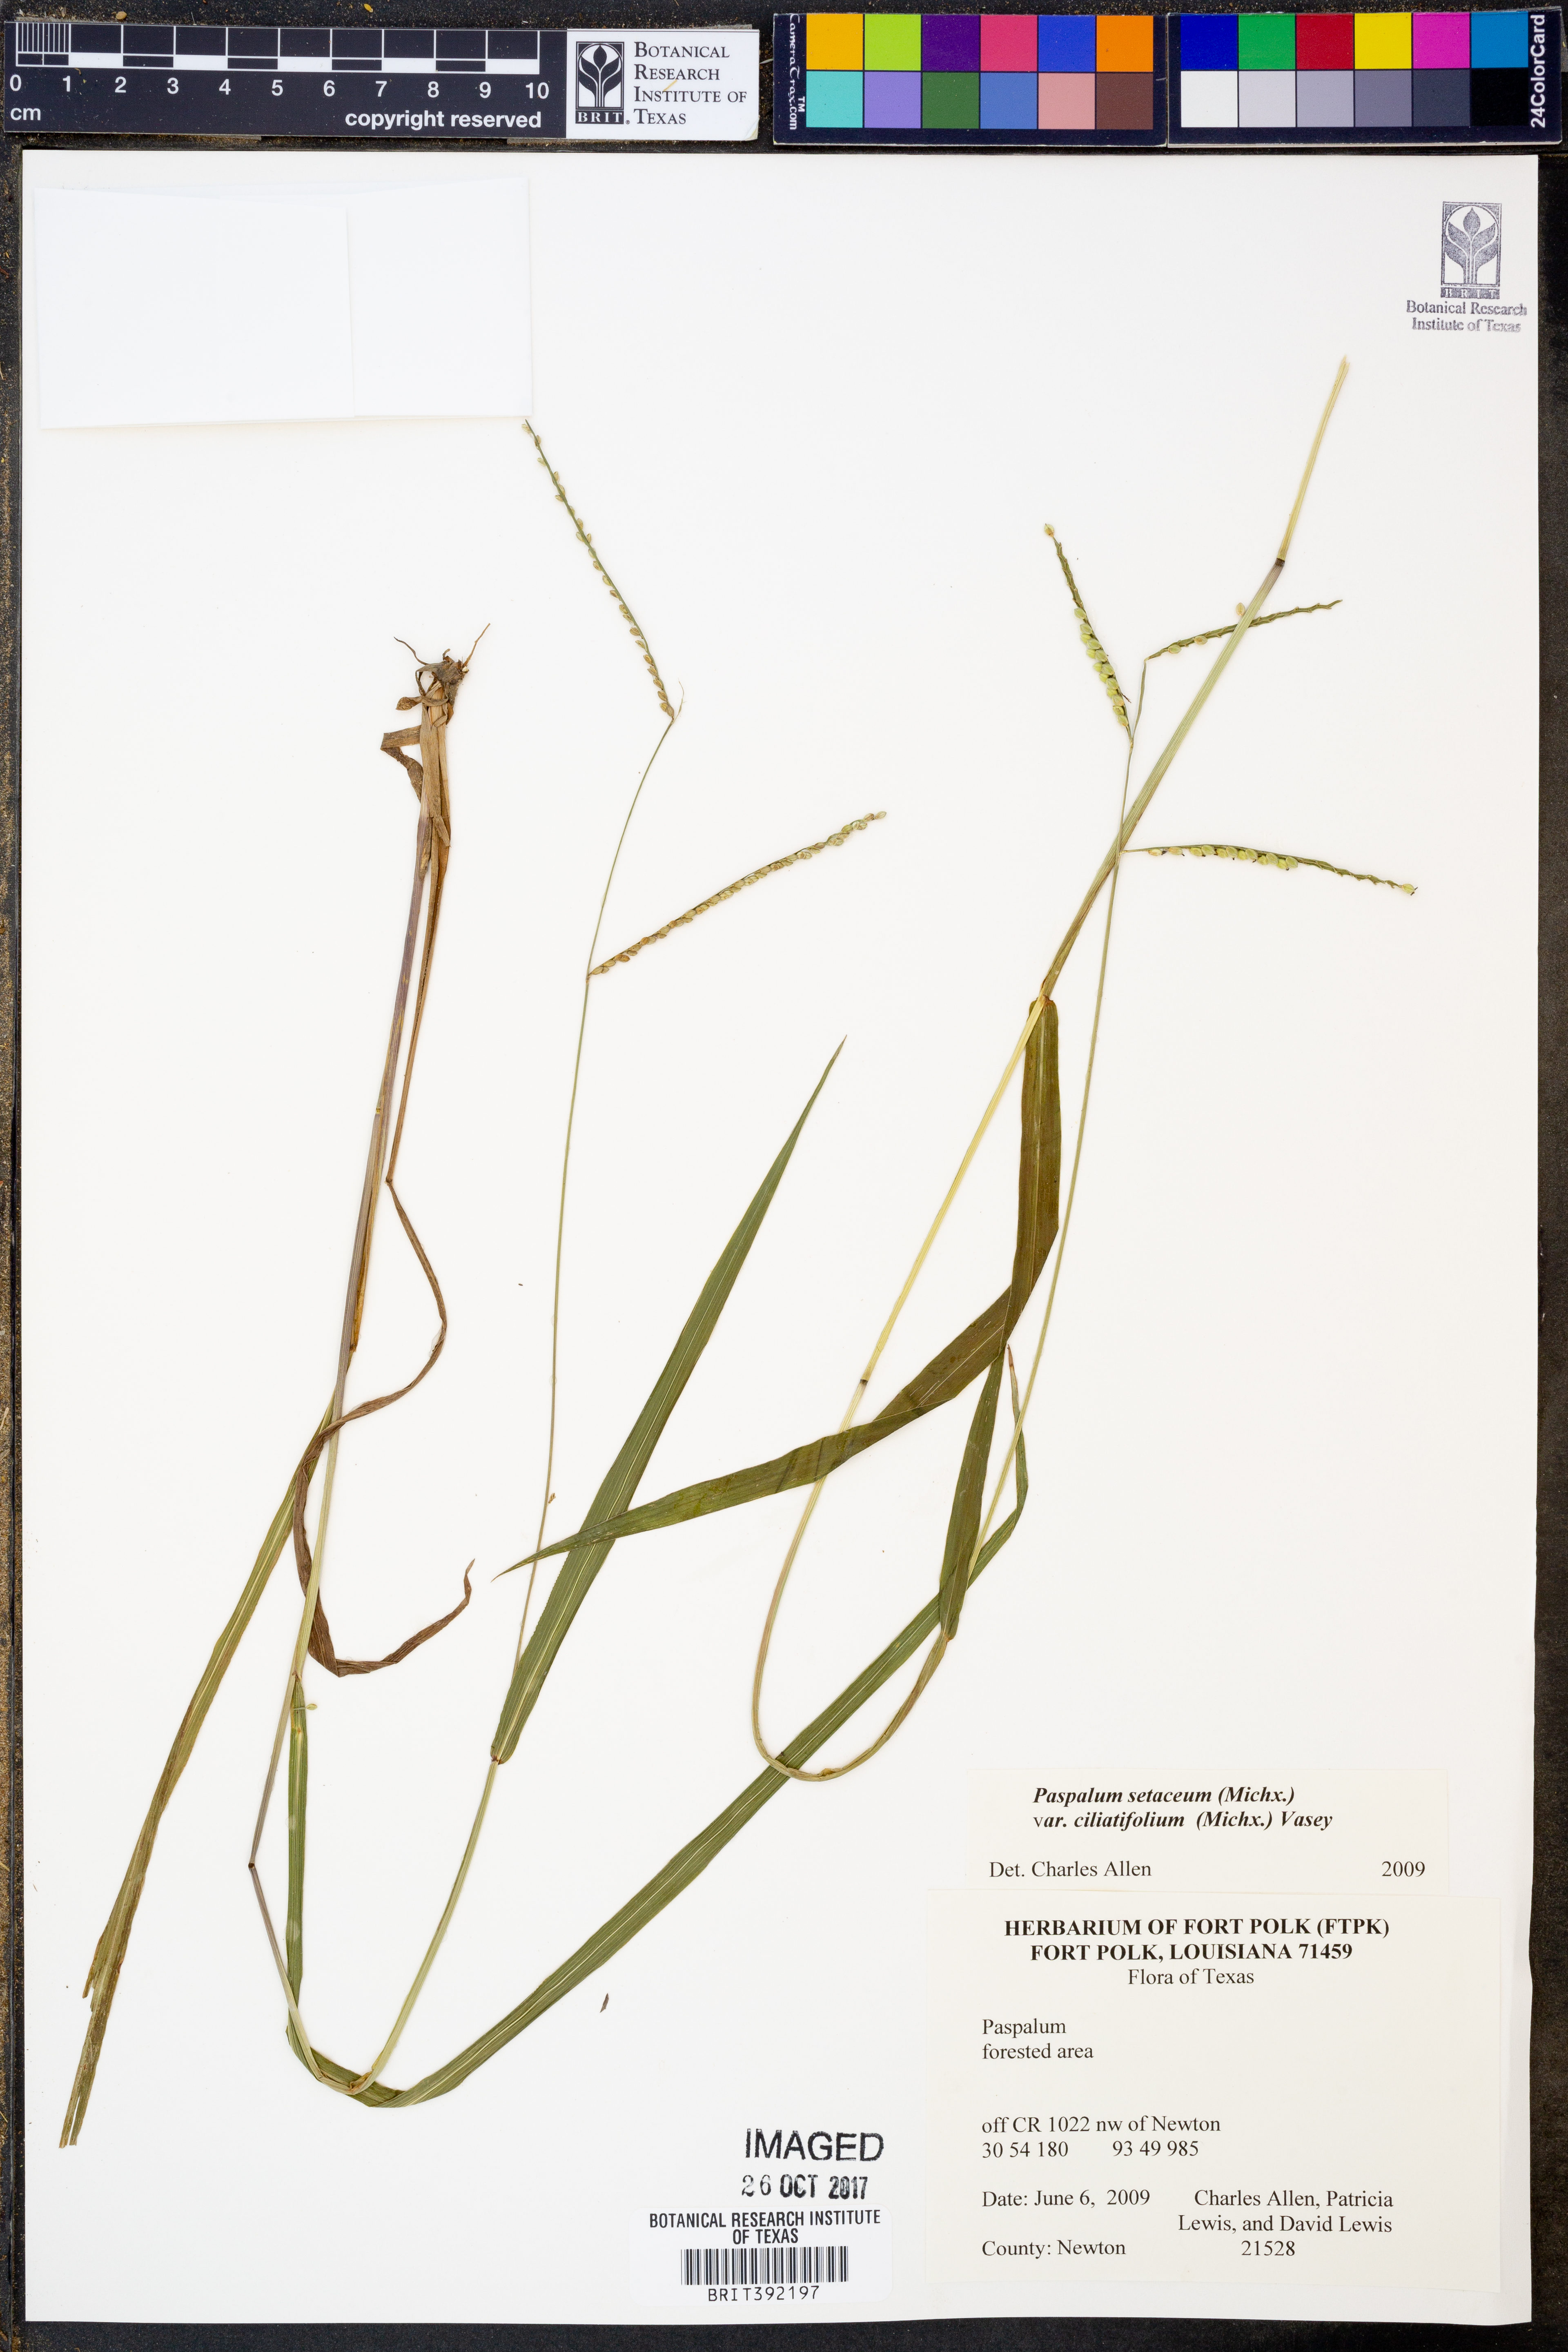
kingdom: Plantae
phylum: Tracheophyta
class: Liliopsida
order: Poales
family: Poaceae
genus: Paspalum
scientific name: Paspalum setaceum
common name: Slender paspalum
